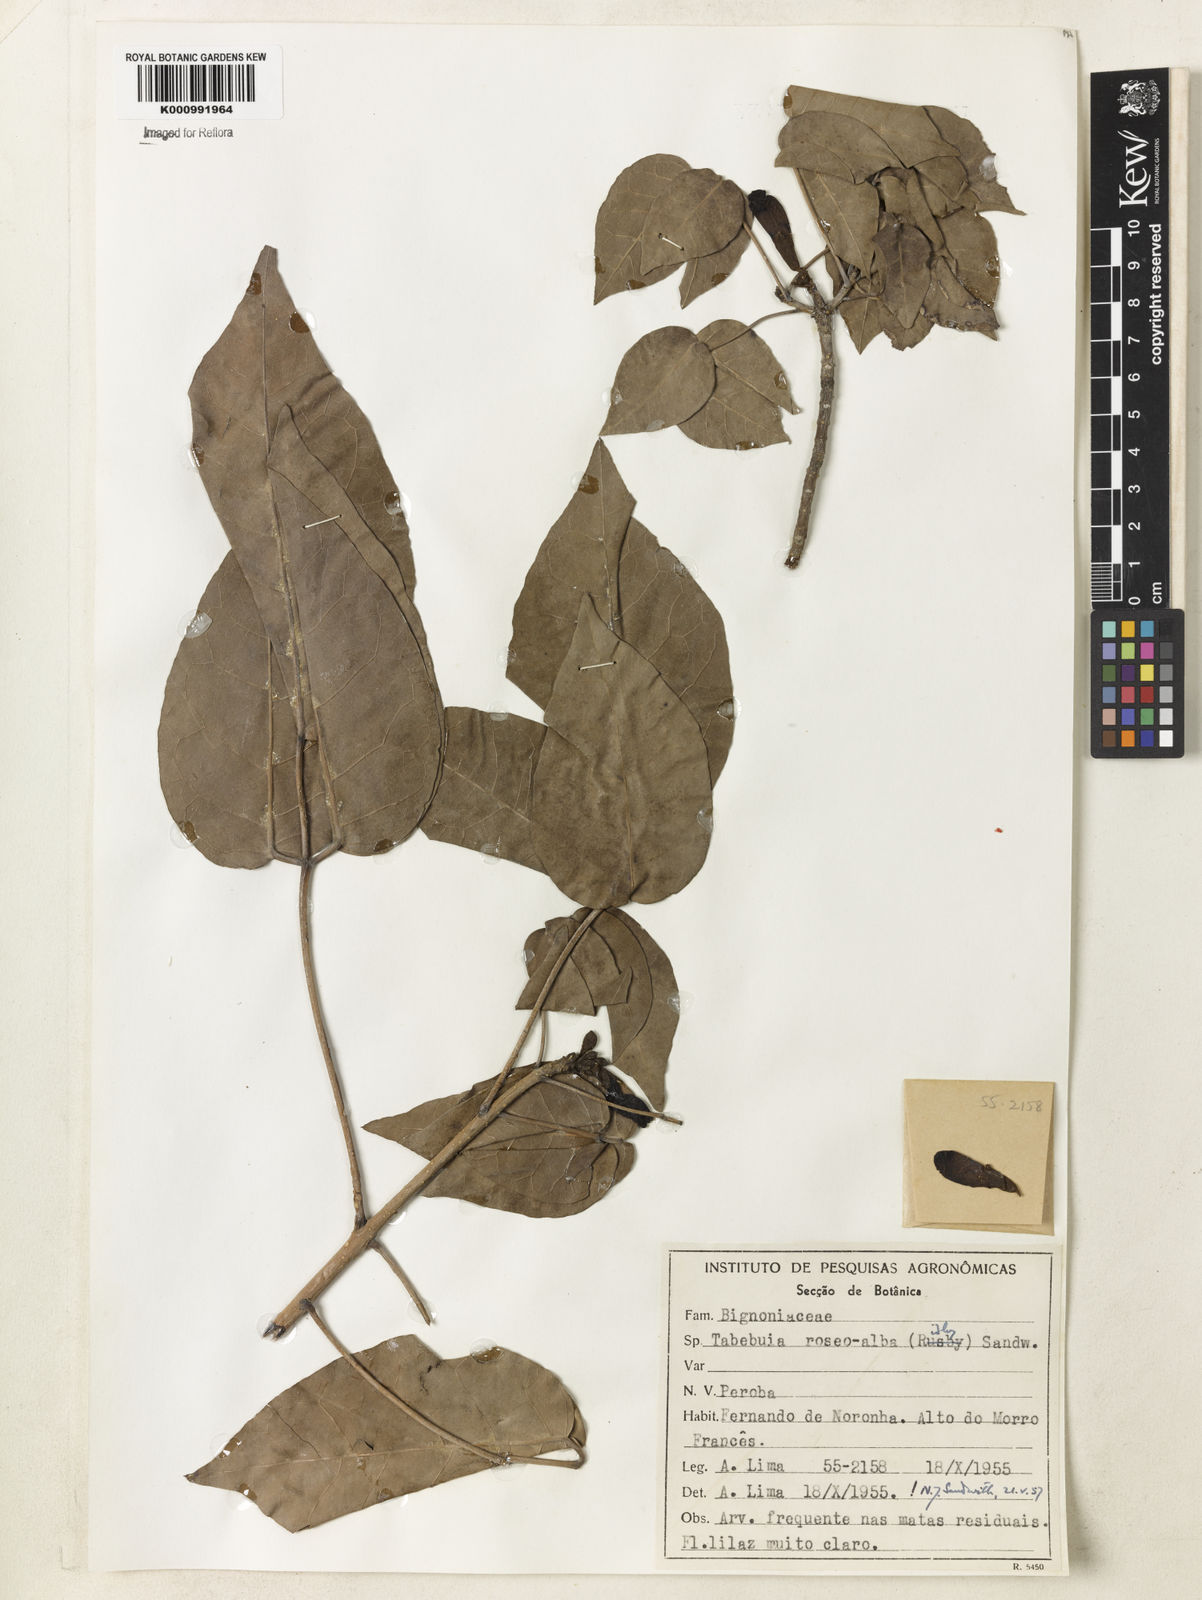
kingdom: Plantae
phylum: Tracheophyta
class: Magnoliopsida
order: Lamiales
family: Bignoniaceae
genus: Tabebuia
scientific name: Tabebuia roseoalba
